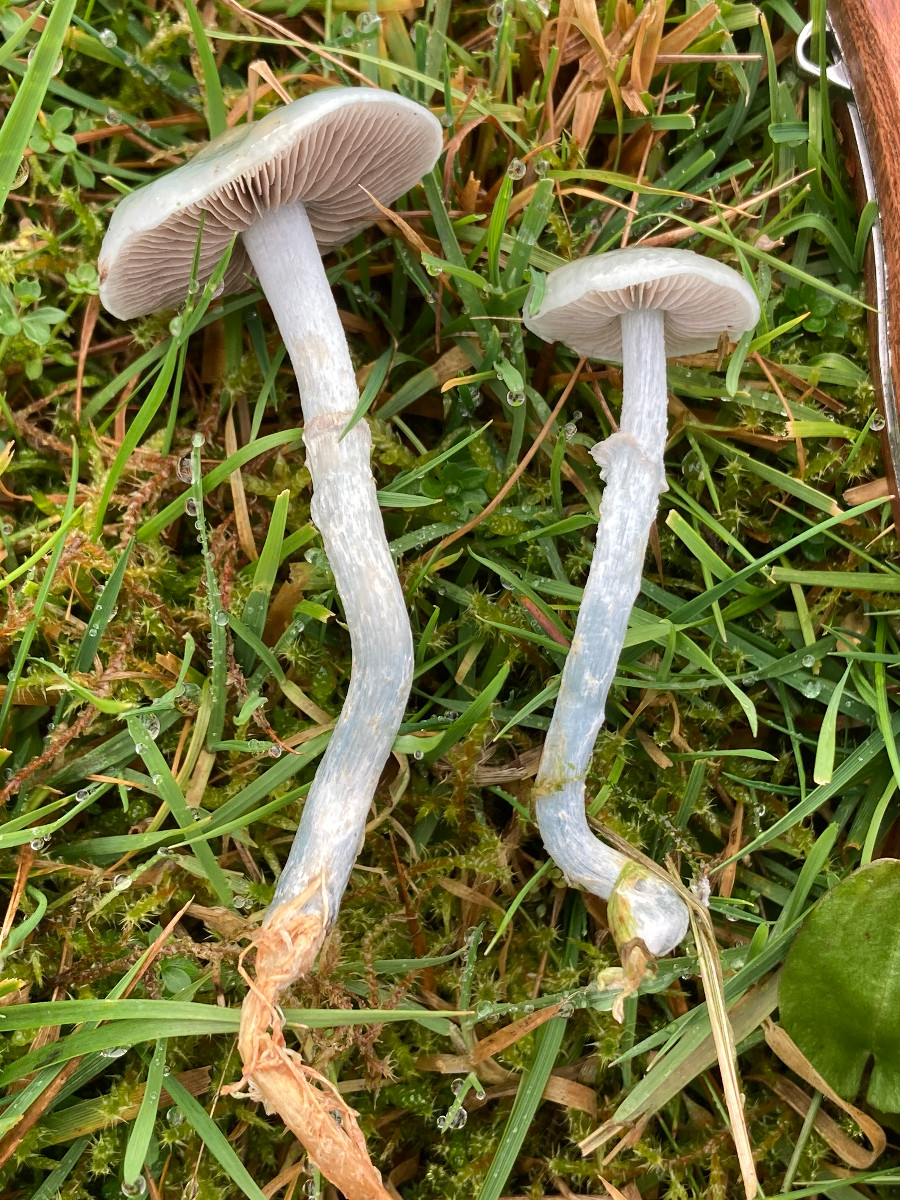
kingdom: Fungi
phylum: Basidiomycota
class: Agaricomycetes
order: Agaricales
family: Strophariaceae
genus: Stropharia
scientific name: Stropharia cyanea
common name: blågrøn bredblad
